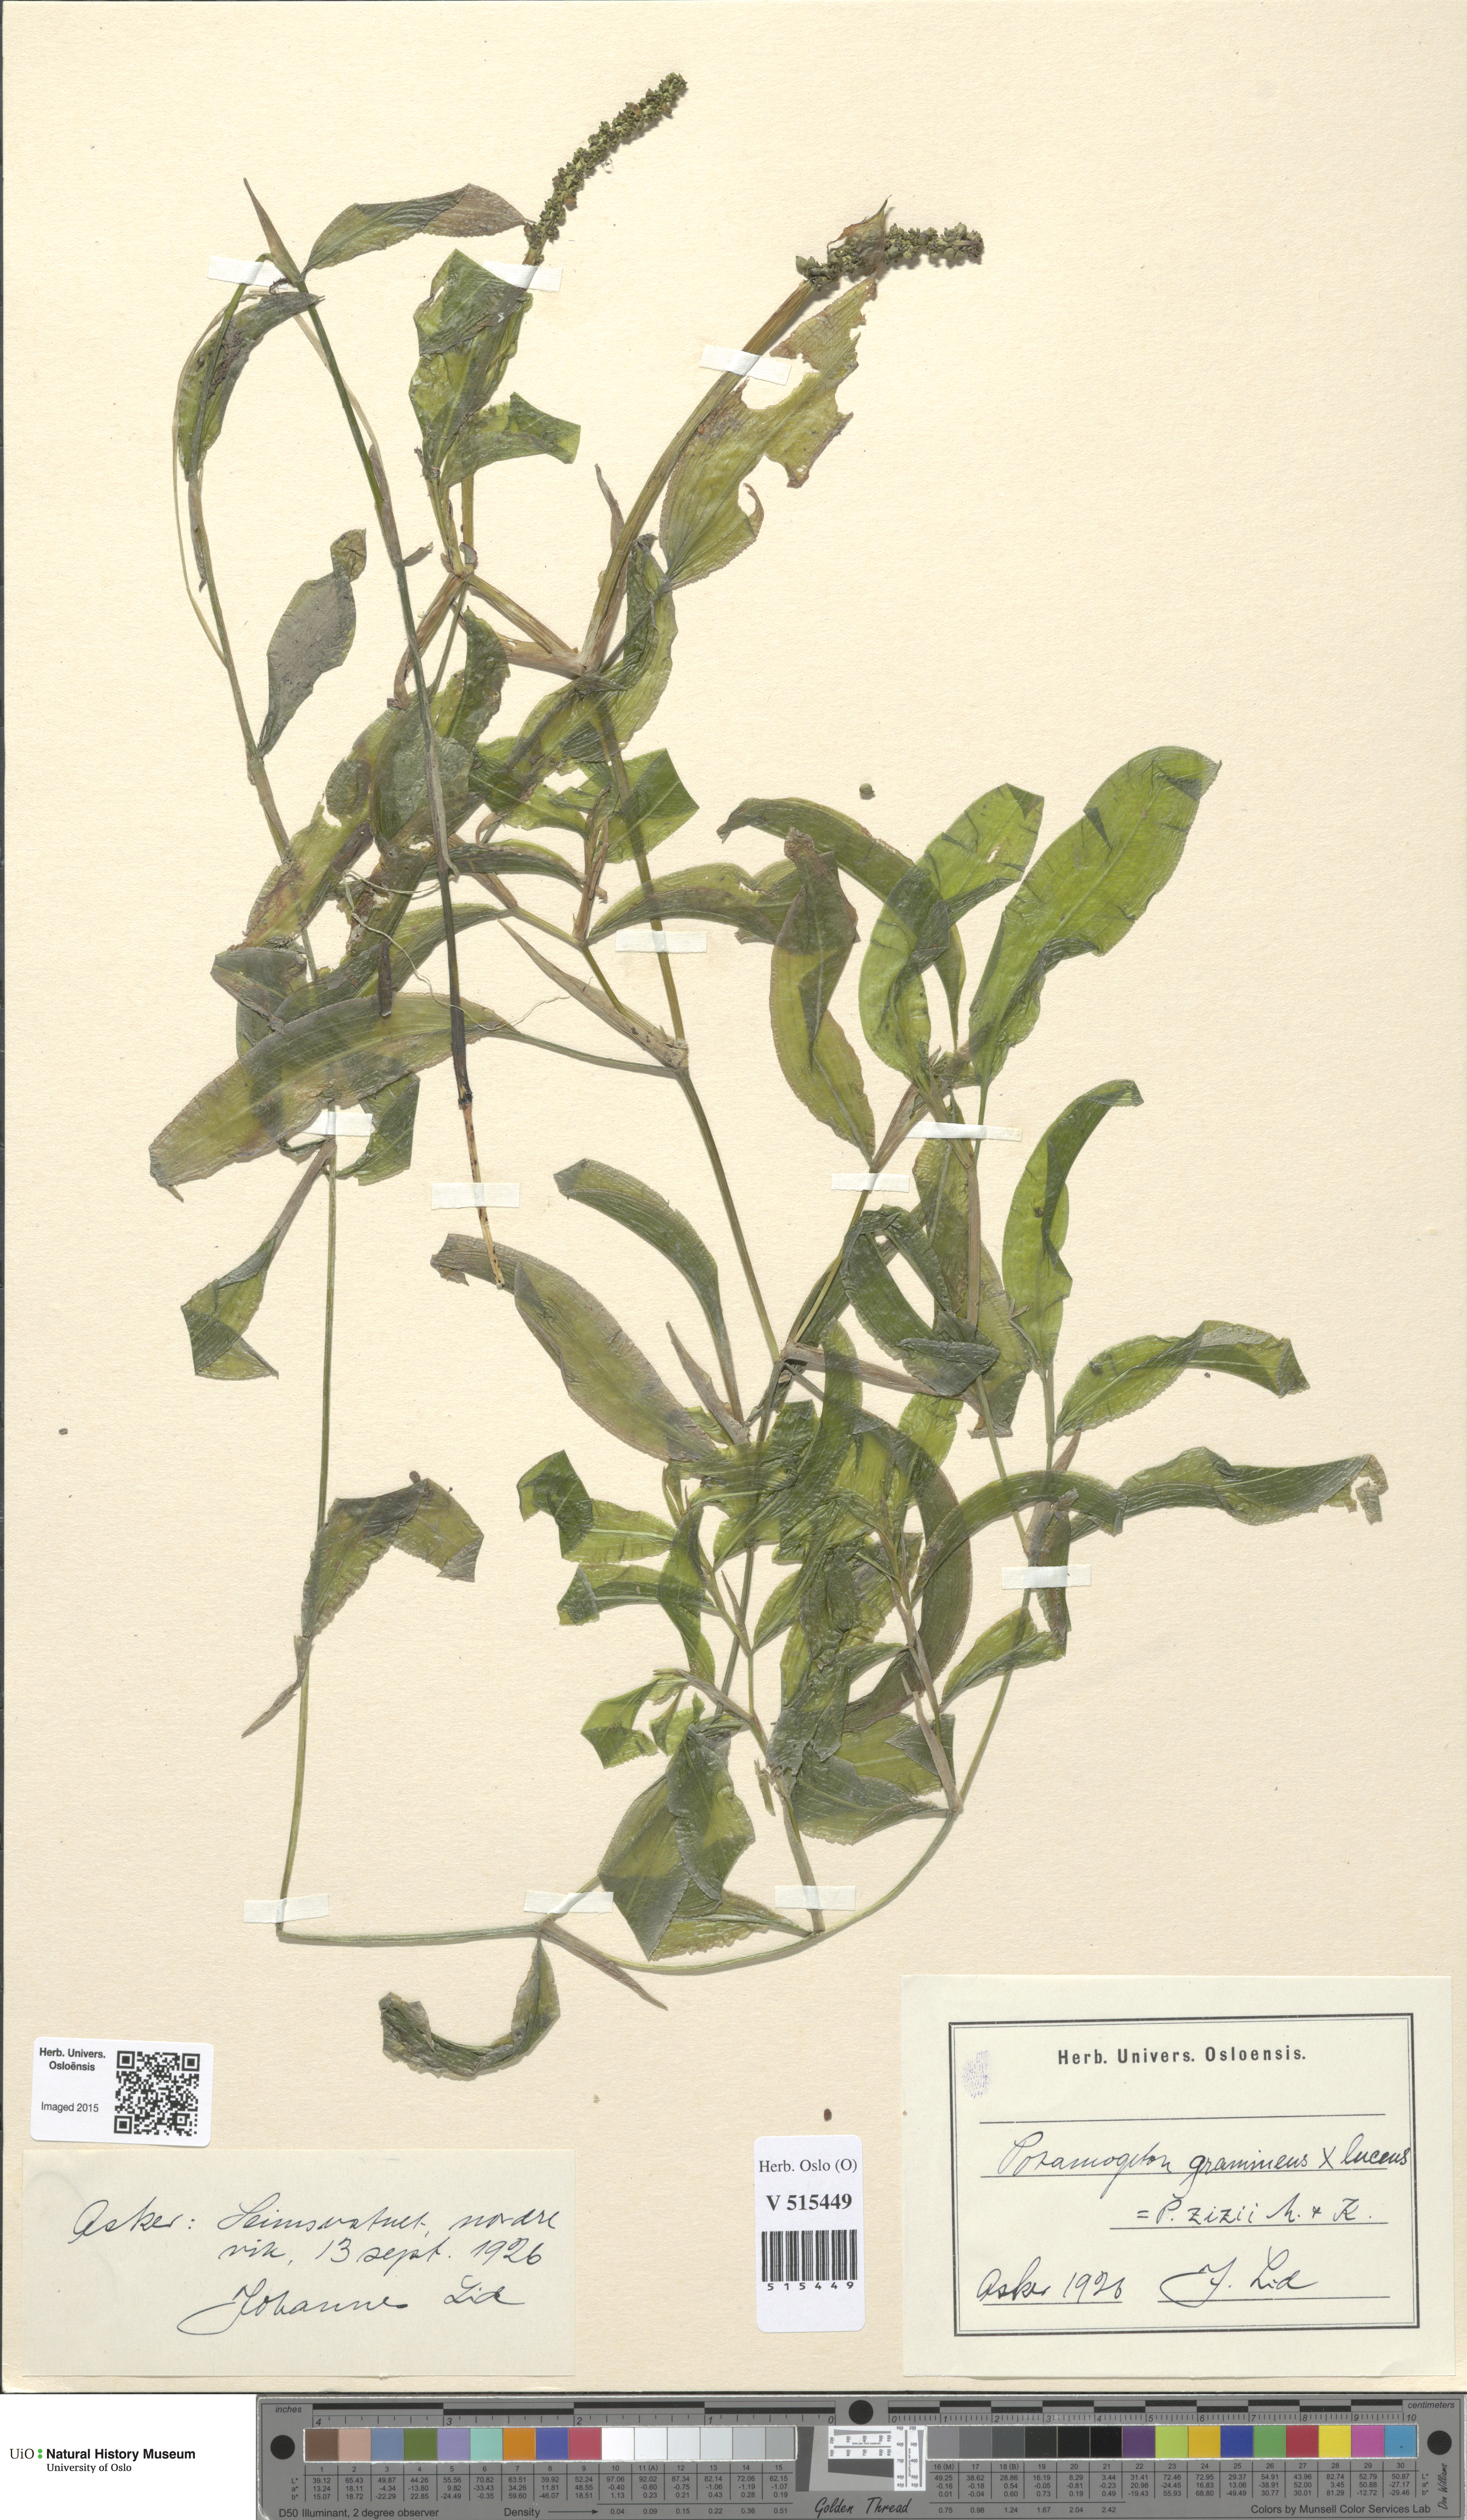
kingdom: Plantae
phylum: Tracheophyta
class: Liliopsida
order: Alismatales
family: Potamogetonaceae
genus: Potamogeton
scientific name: Potamogeton angustifolius
